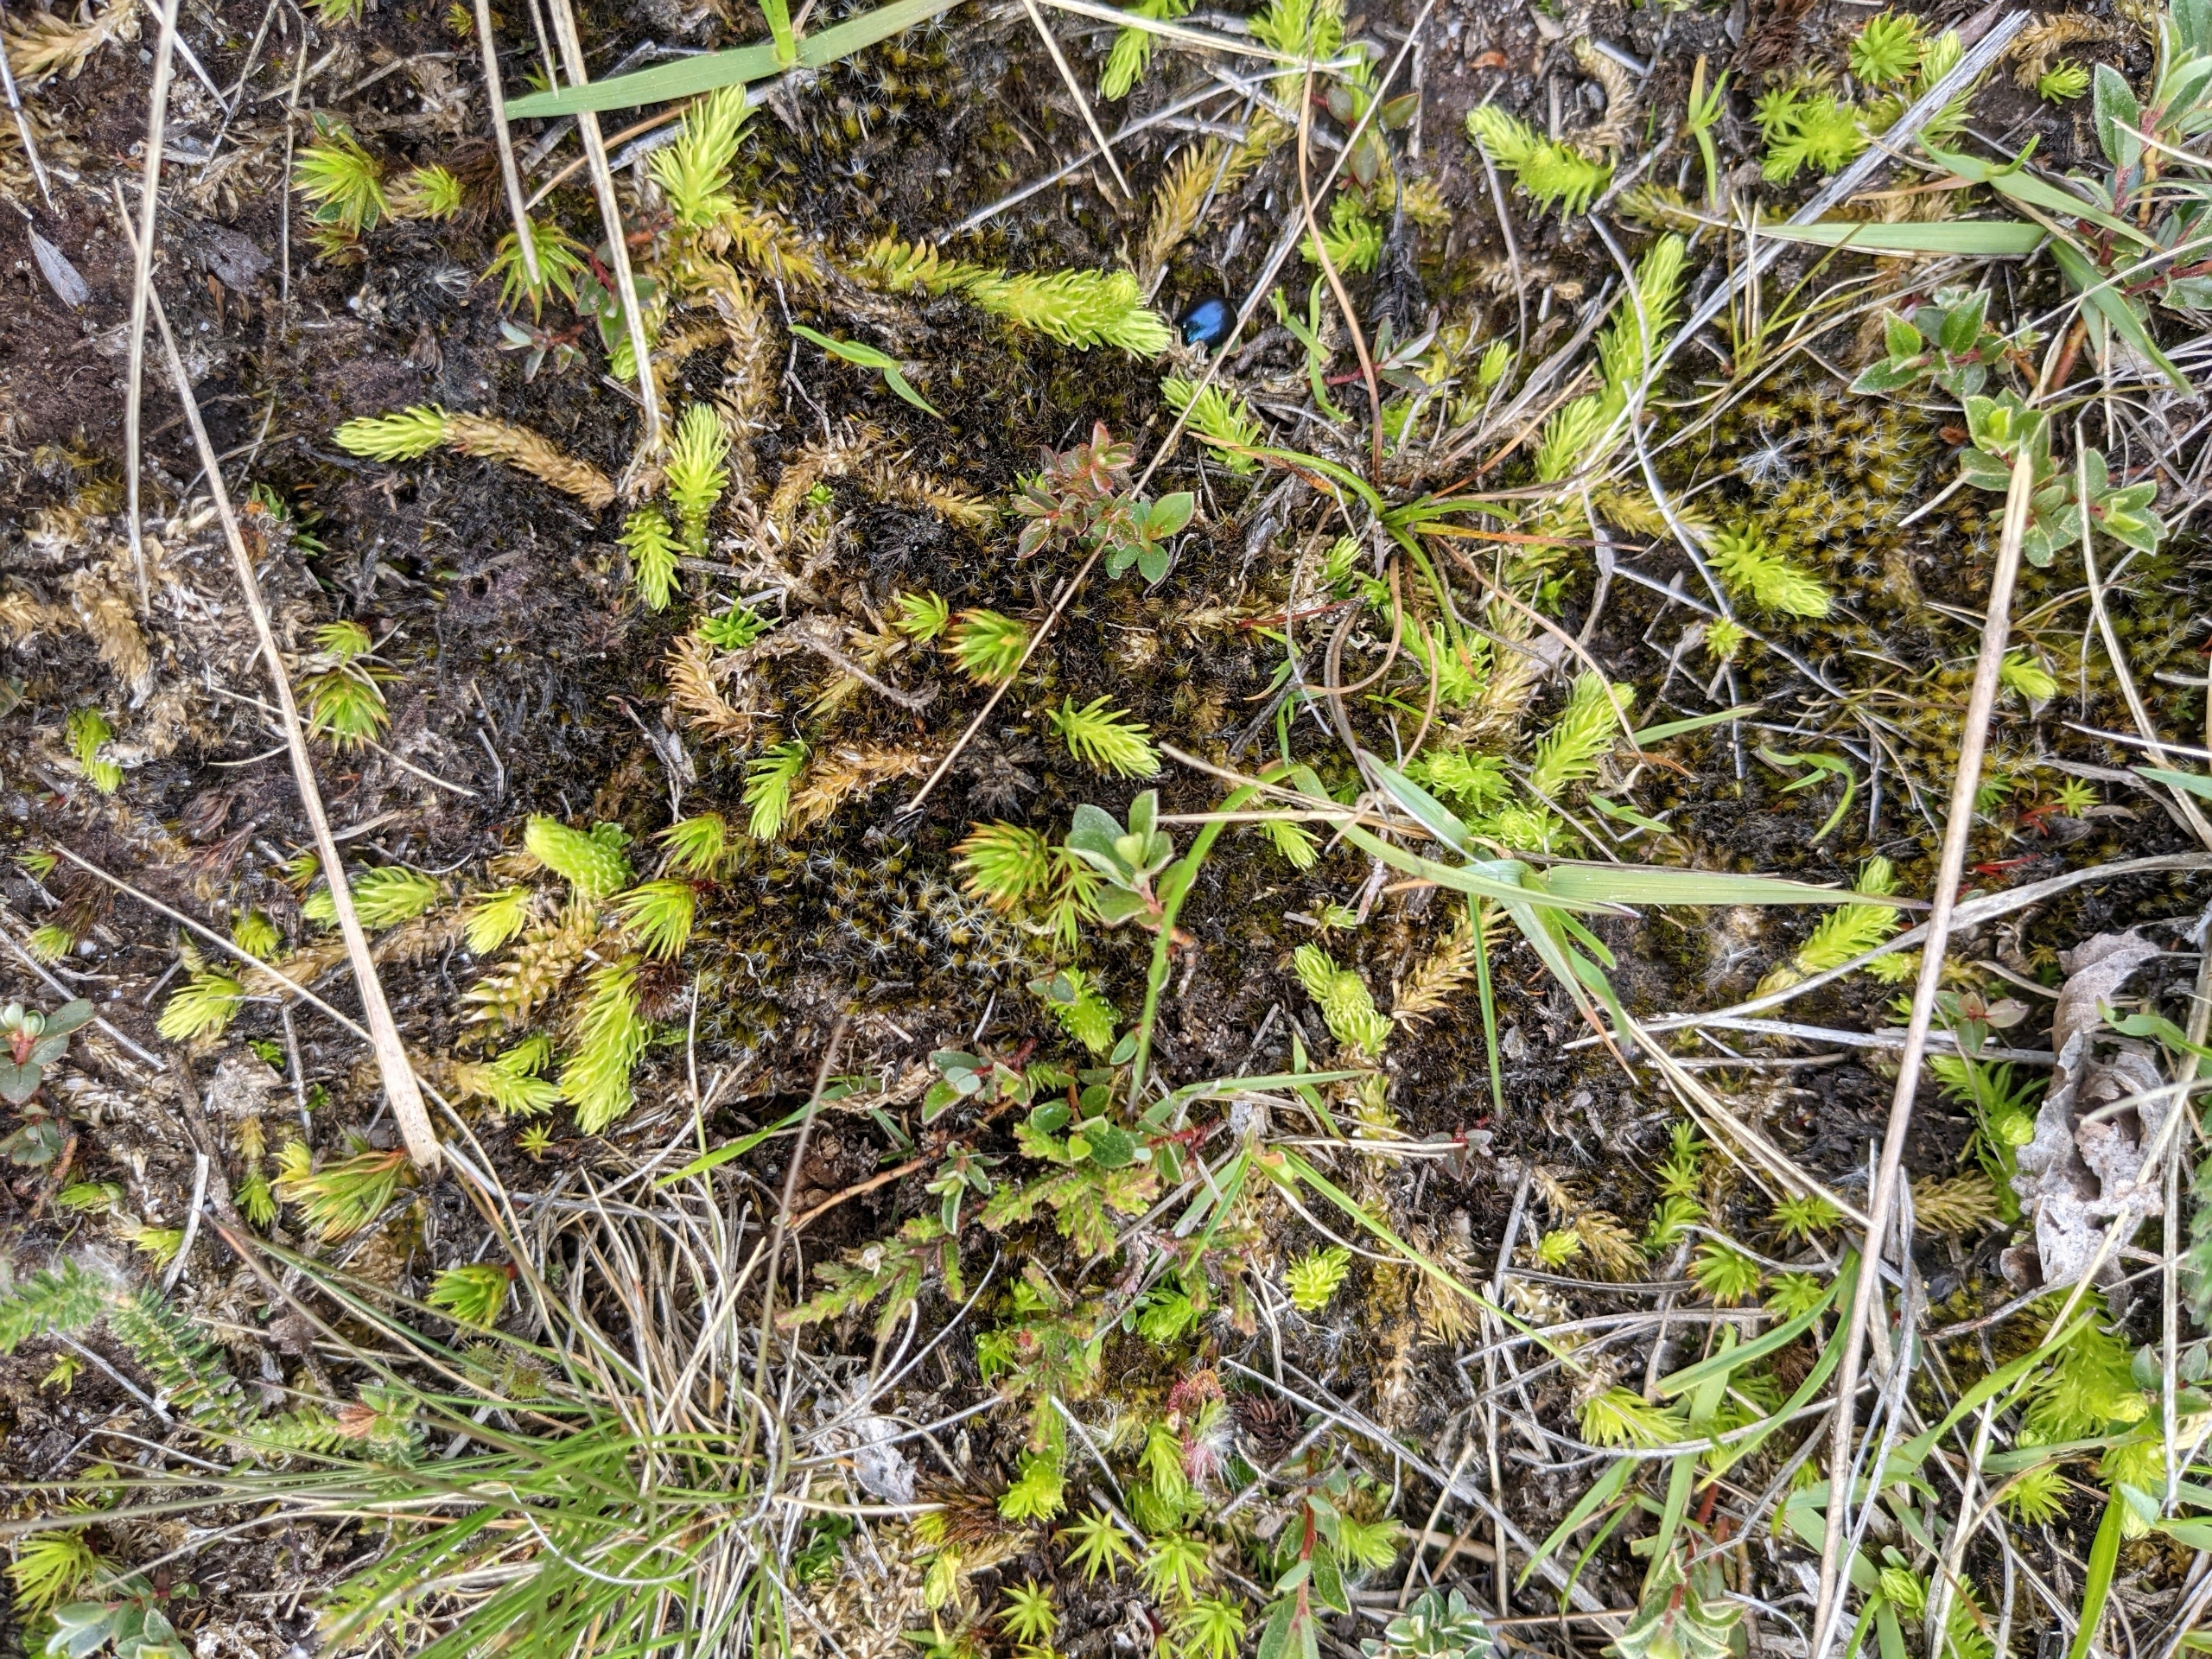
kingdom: Plantae
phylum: Tracheophyta
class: Lycopodiopsida
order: Lycopodiales
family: Lycopodiaceae
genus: Lycopodiella
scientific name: Lycopodiella inundata
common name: Liden ulvefod
